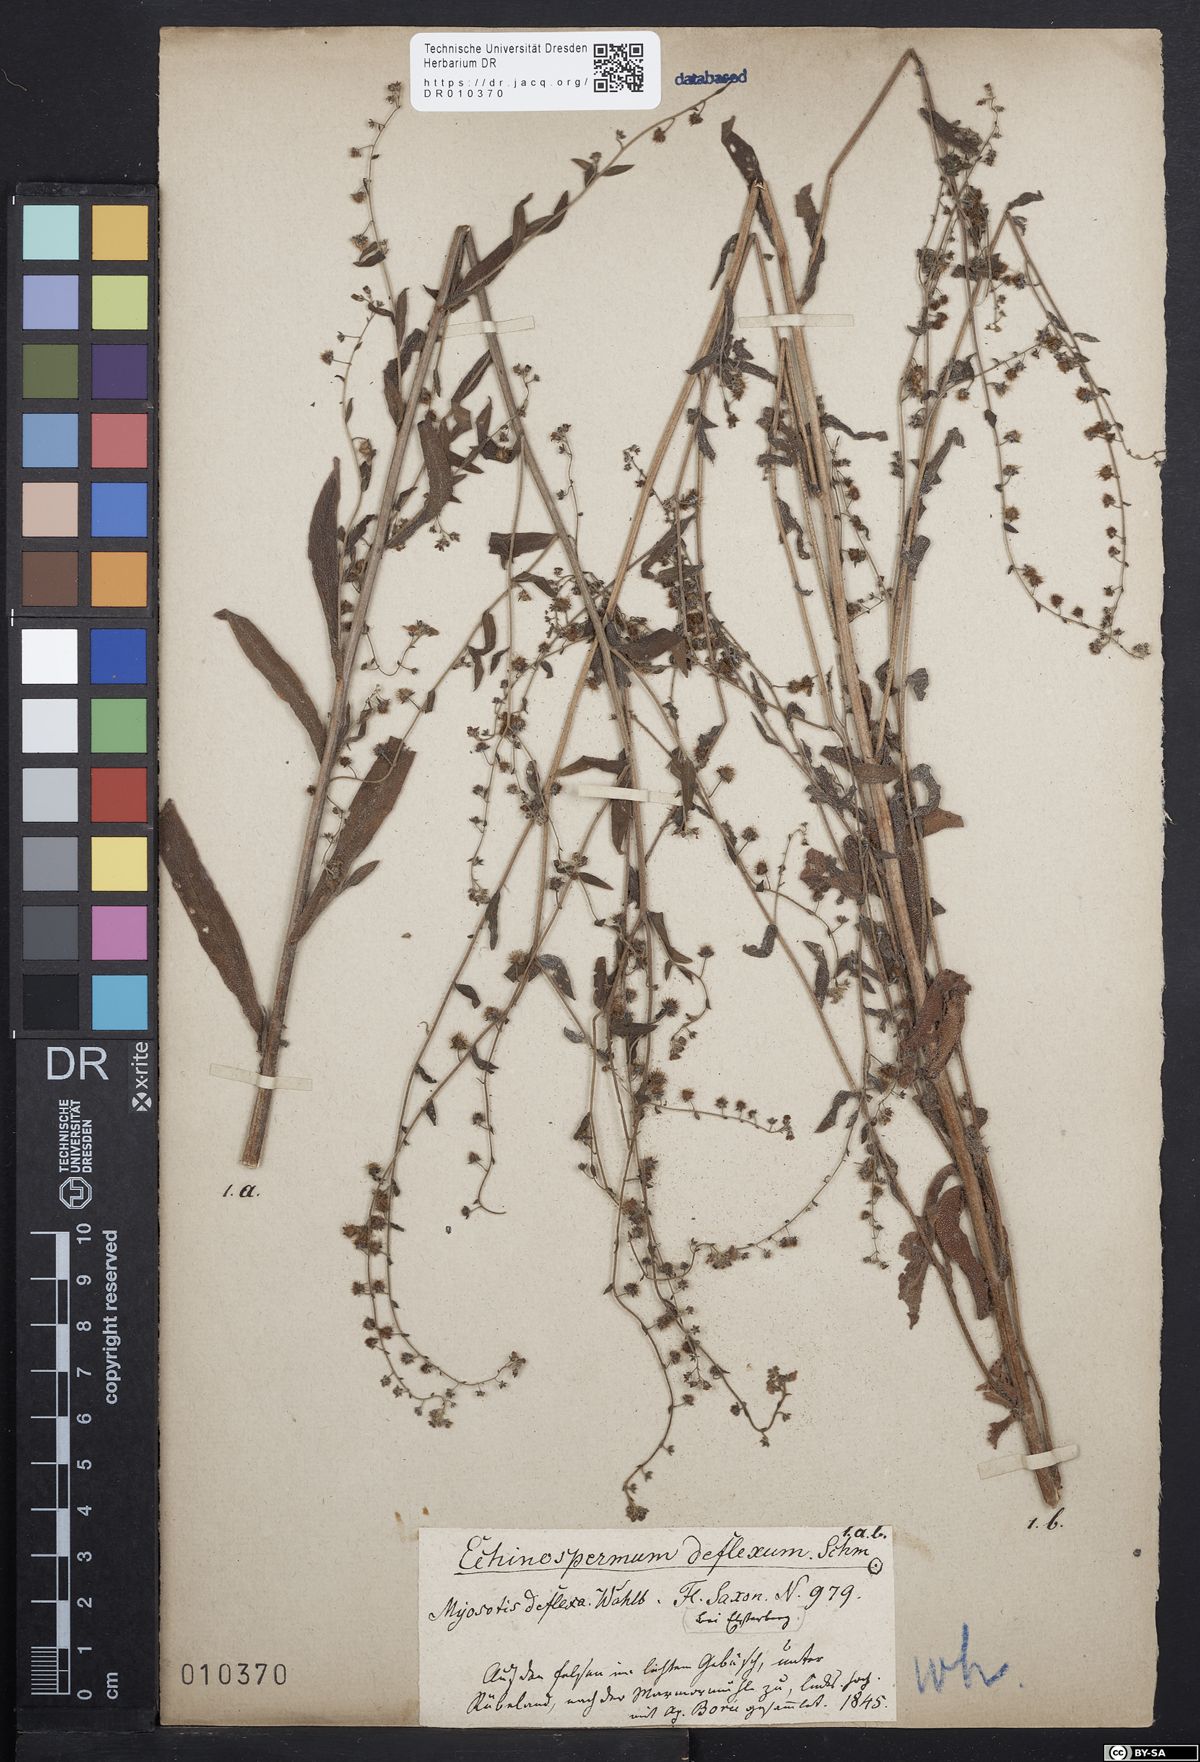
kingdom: Plantae
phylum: Tracheophyta
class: Magnoliopsida
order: Boraginales
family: Boraginaceae
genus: Hackelia
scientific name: Hackelia deflexa
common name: Nodding stickseed
